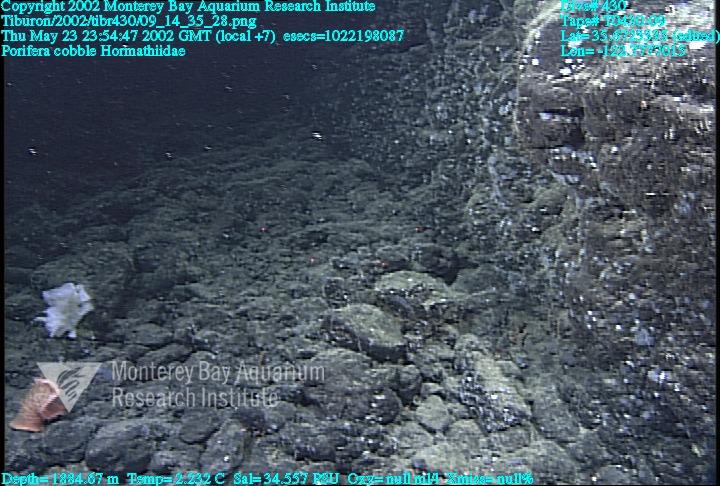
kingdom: Animalia
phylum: Porifera
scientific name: Porifera
